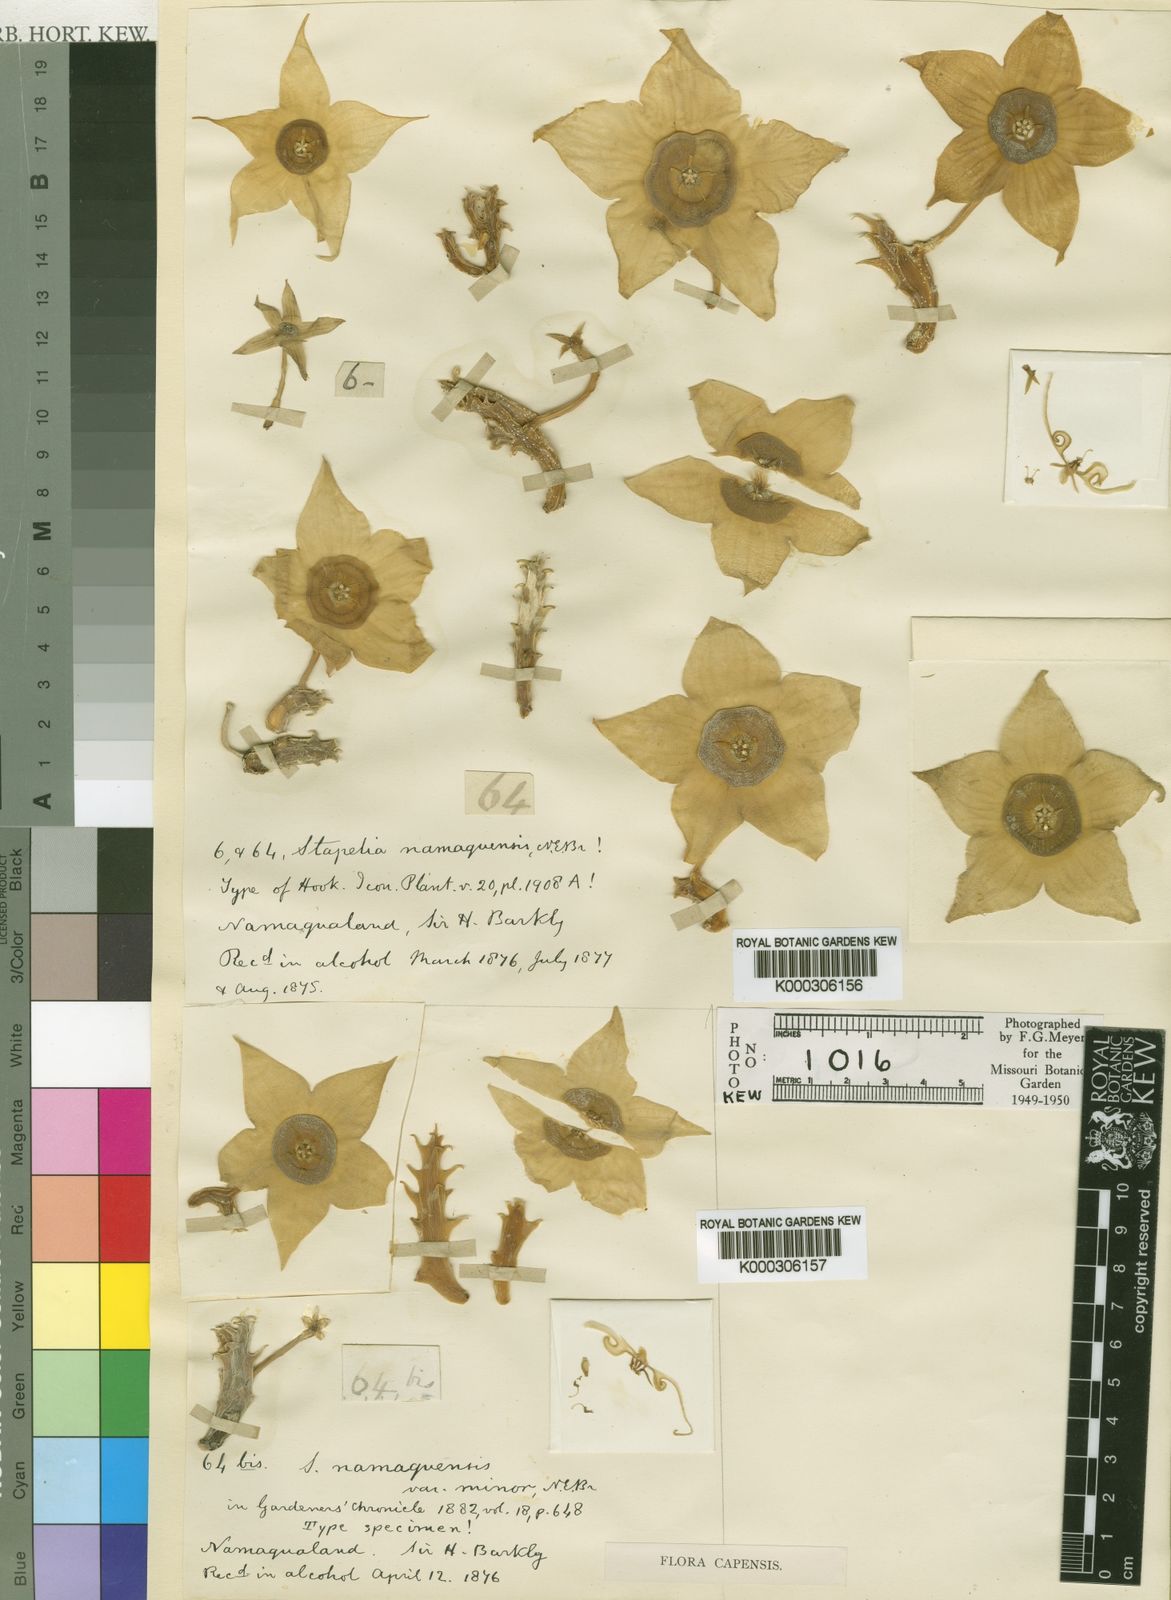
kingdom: Plantae
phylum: Tracheophyta
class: Magnoliopsida
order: Gentianales
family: Apocynaceae
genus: Ceropegia
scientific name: Ceropegia namaquana
